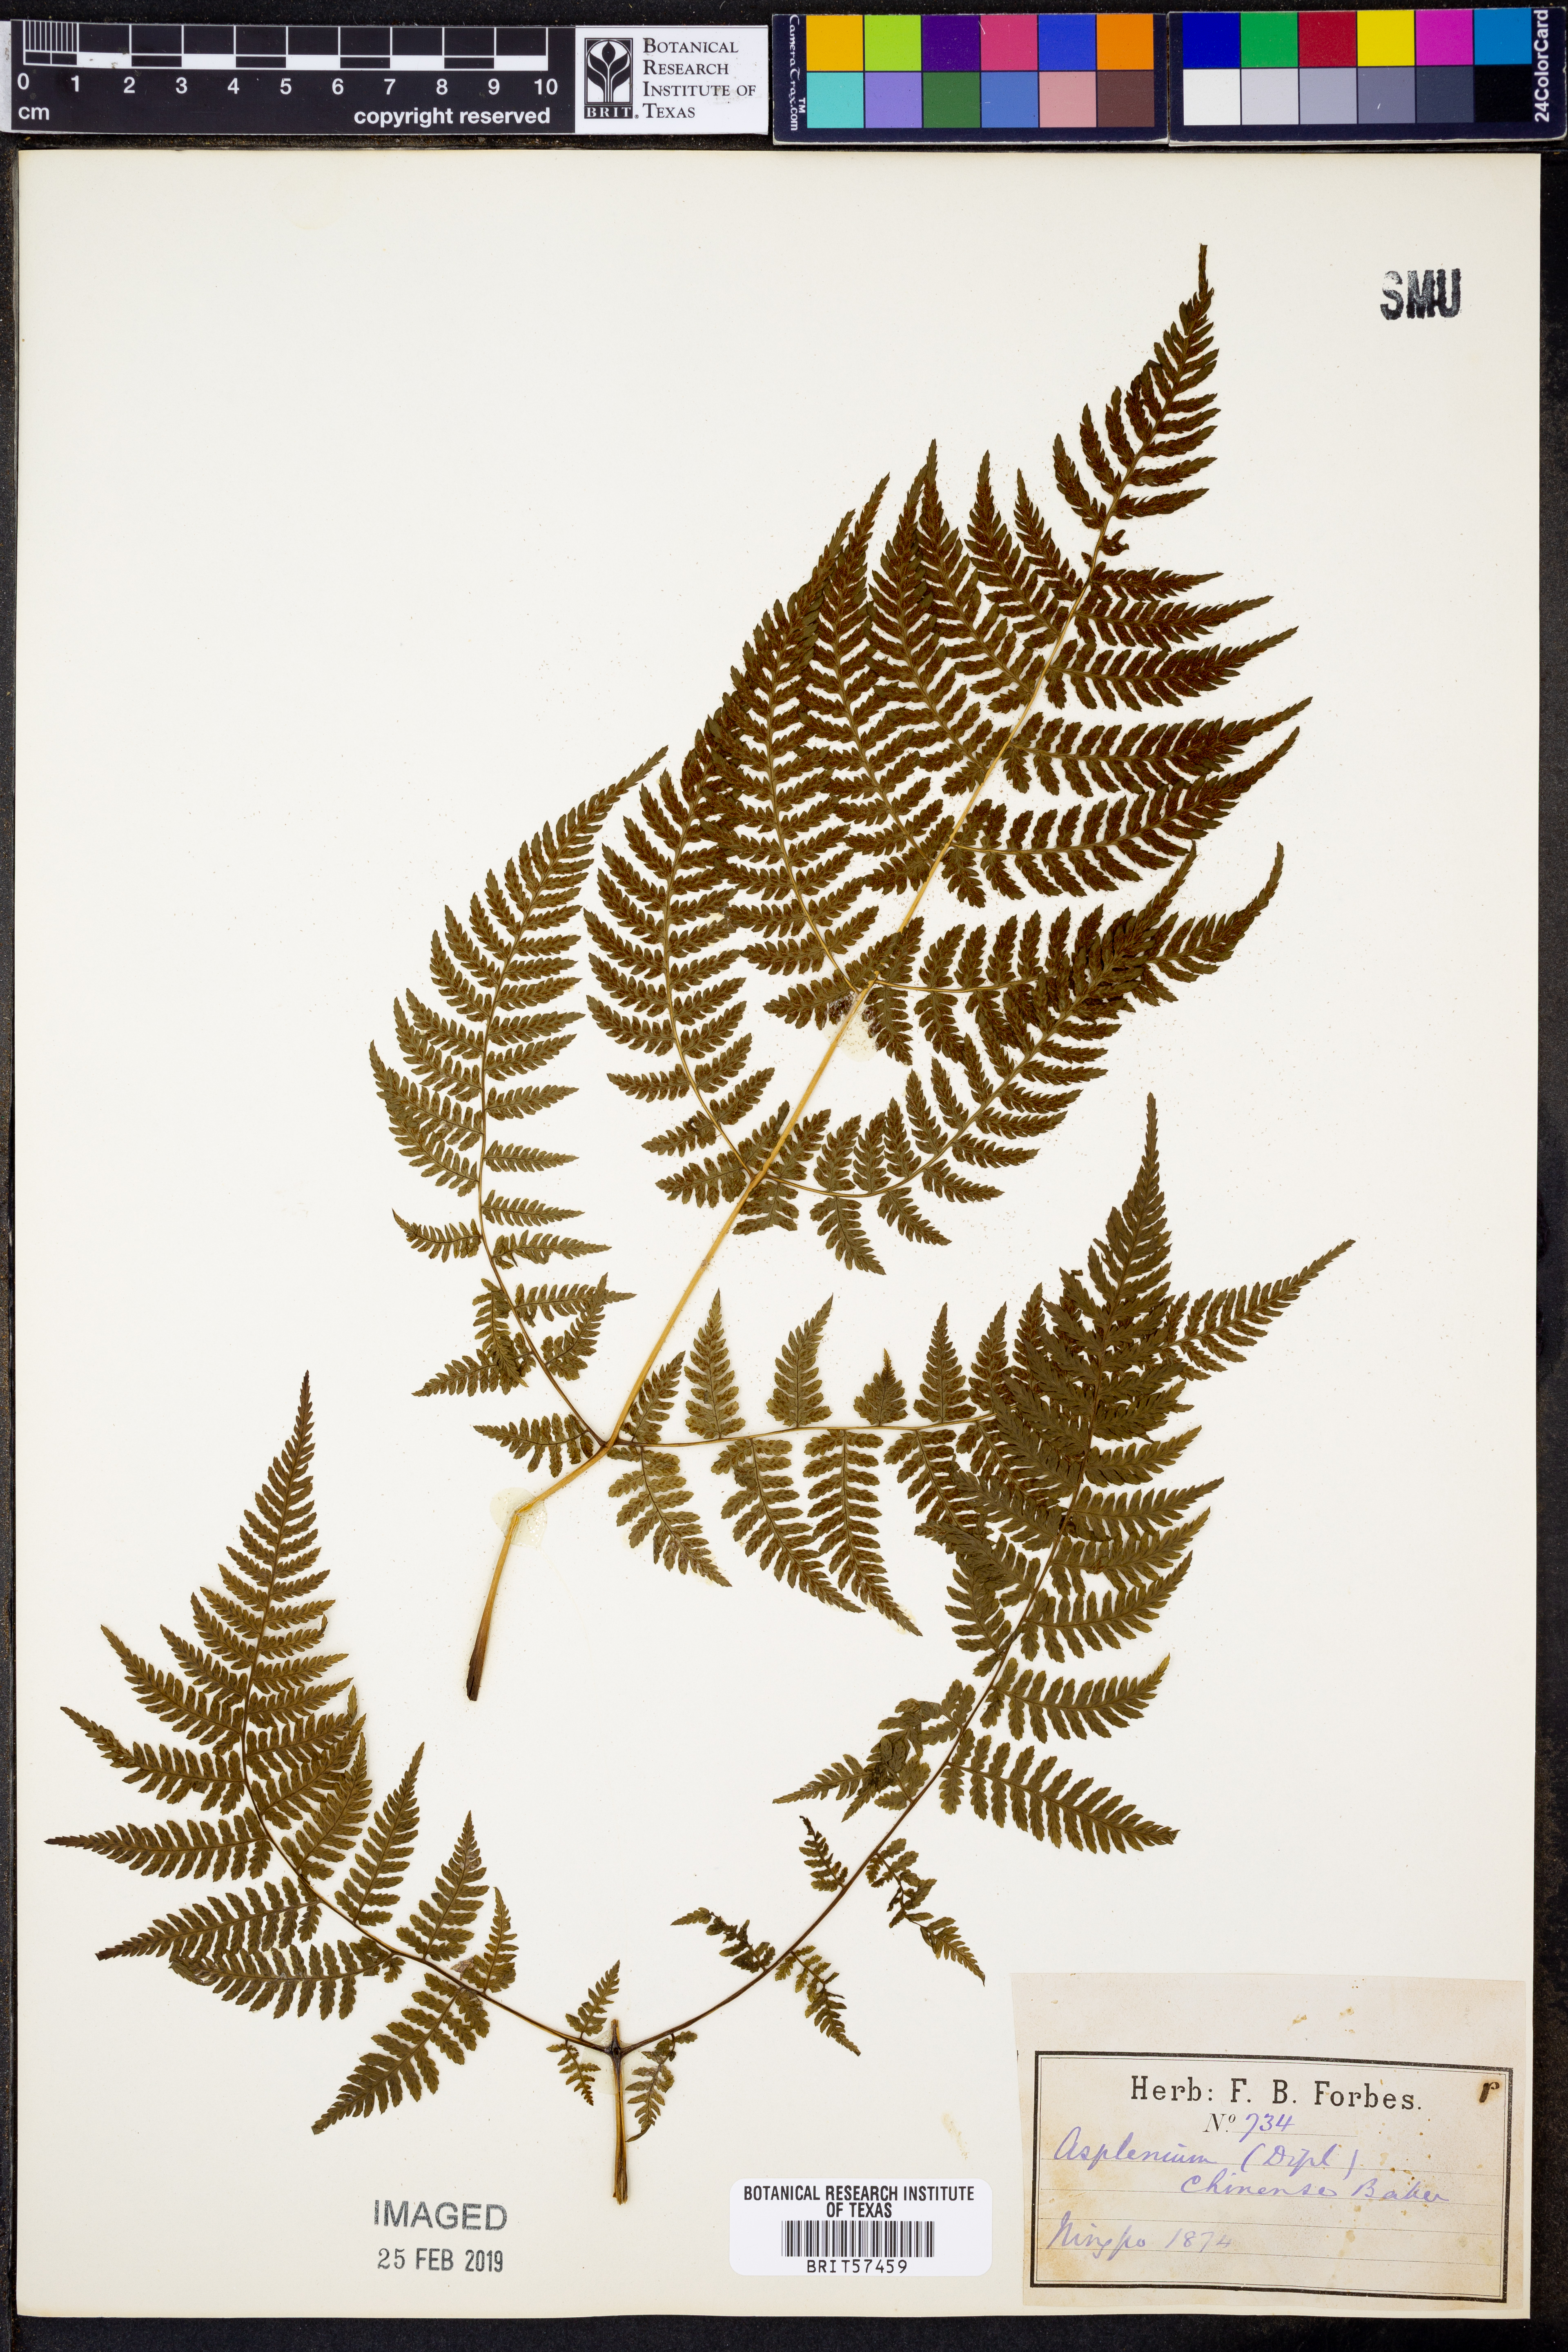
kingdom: Plantae
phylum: Tracheophyta
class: Polypodiopsida
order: Polypodiales
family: Athyriaceae
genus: Diplazium
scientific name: Diplazium chinense
